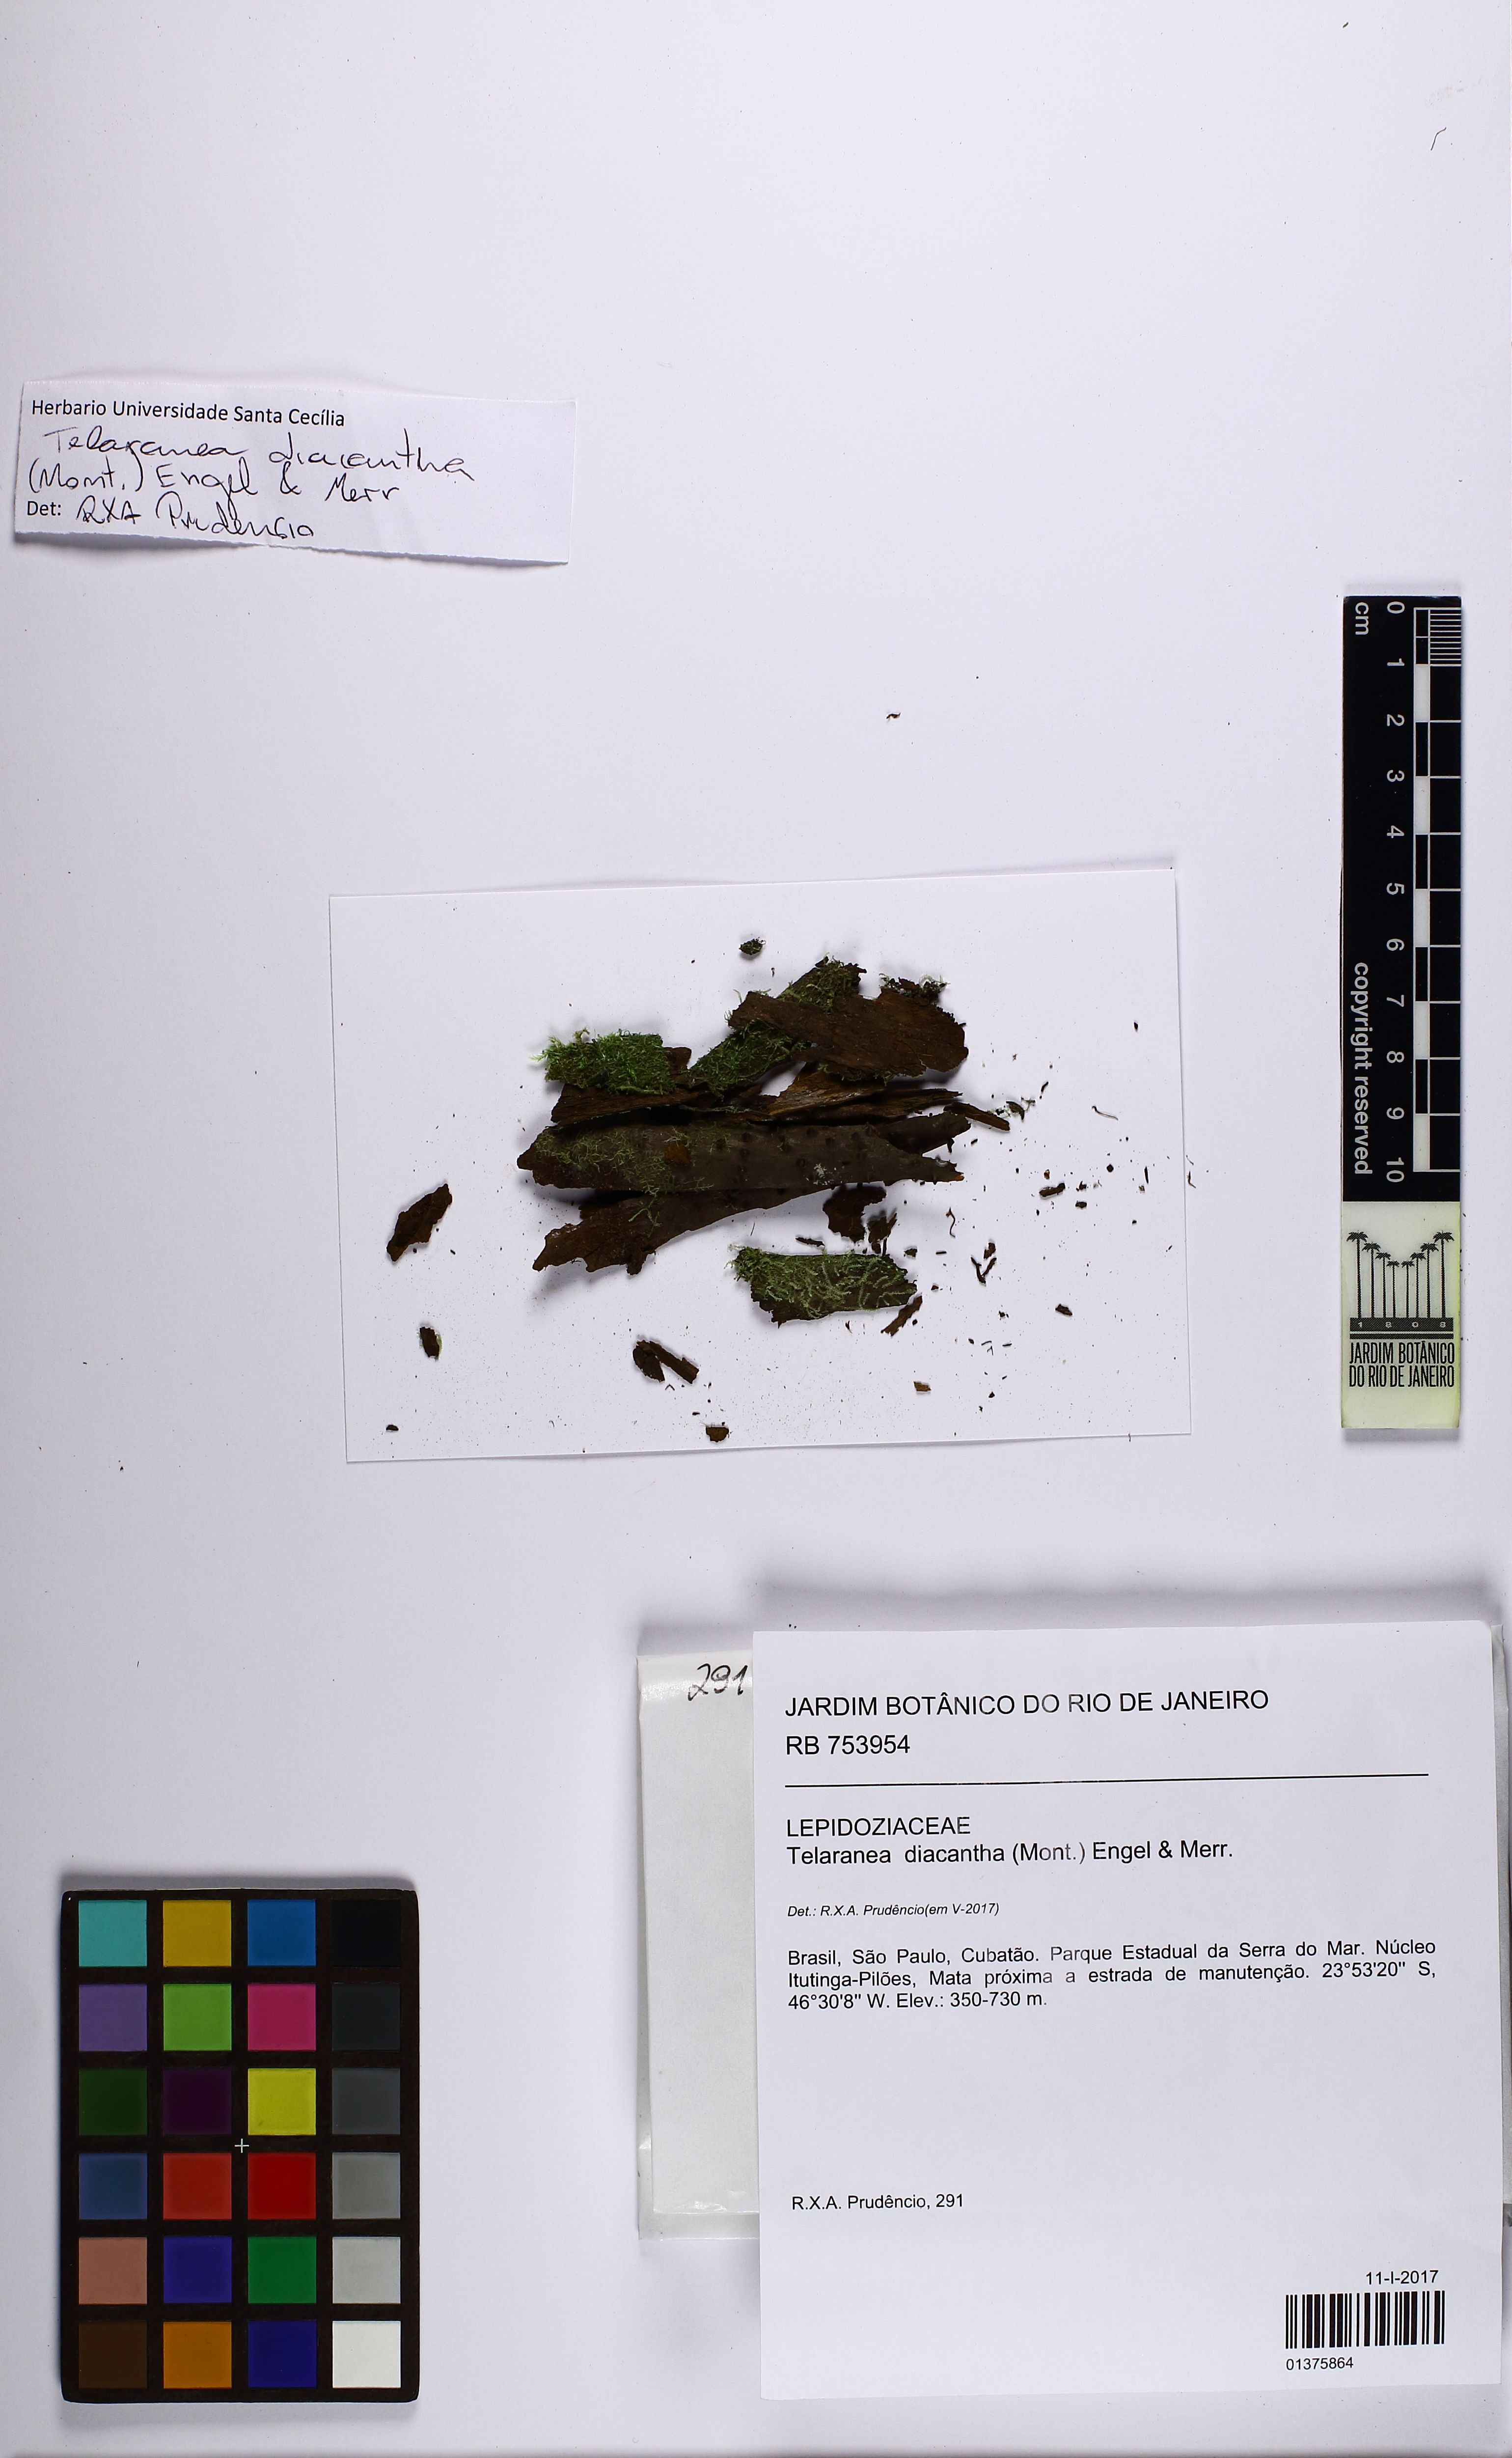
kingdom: Plantae
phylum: Marchantiophyta
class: Jungermanniopsida
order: Jungermanniales
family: Lepidoziaceae
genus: Telaranea
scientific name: Telaranea diacantha
